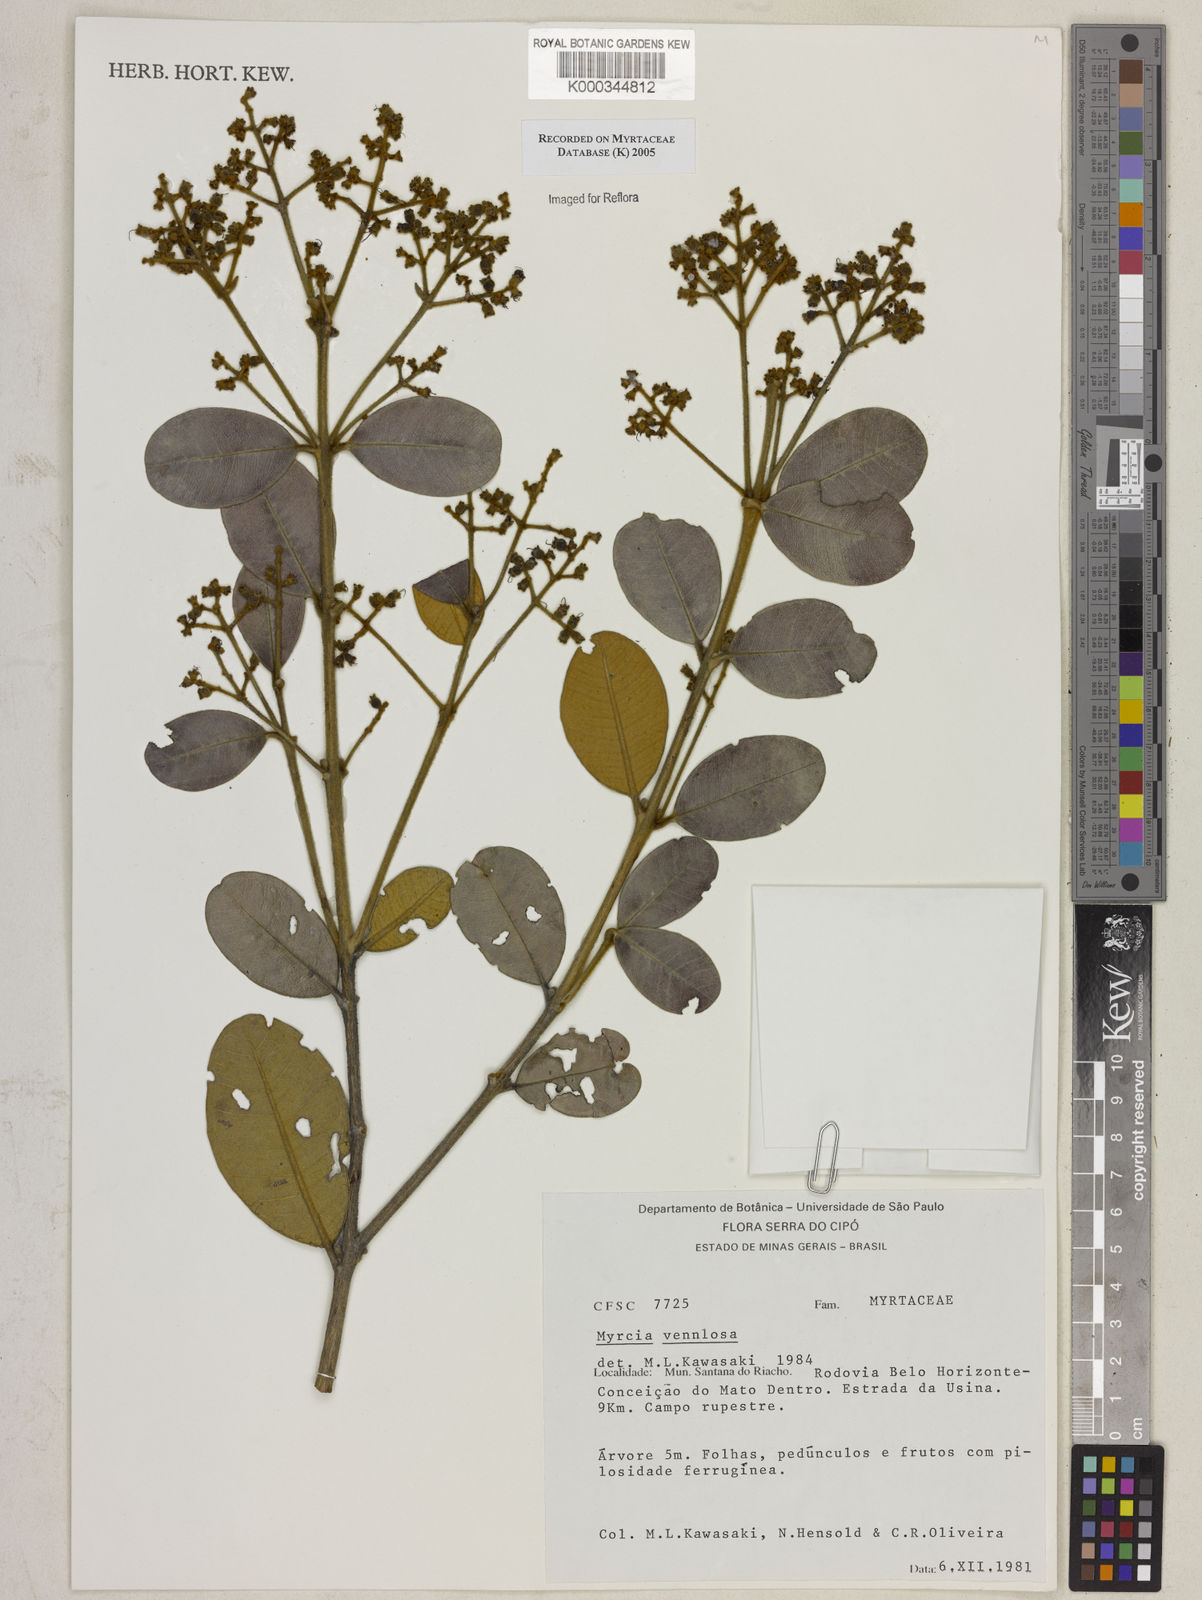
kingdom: Plantae
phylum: Tracheophyta
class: Magnoliopsida
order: Myrtales
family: Myrtaceae
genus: Myrcia
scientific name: Myrcia venulosa
